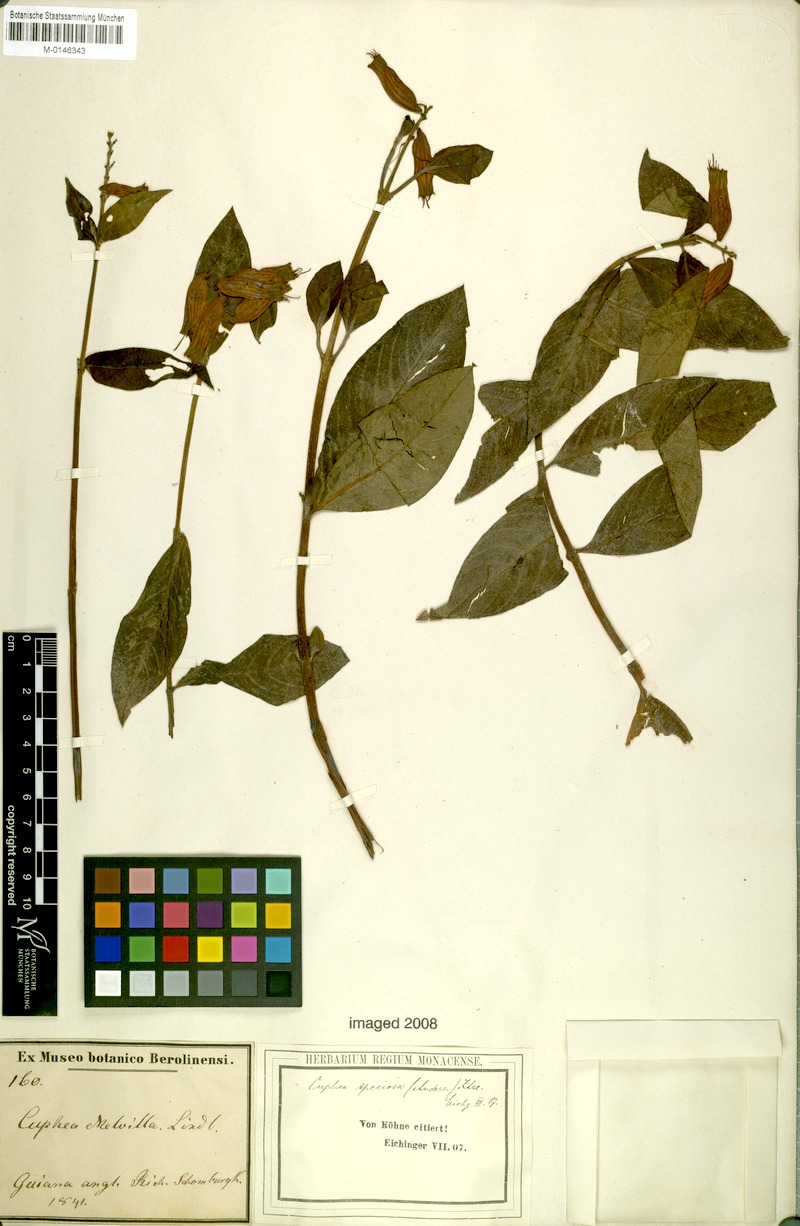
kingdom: Plantae
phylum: Tracheophyta
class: Magnoliopsida
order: Myrtales
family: Lythraceae
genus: Cuphea
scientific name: Cuphea melvilla
